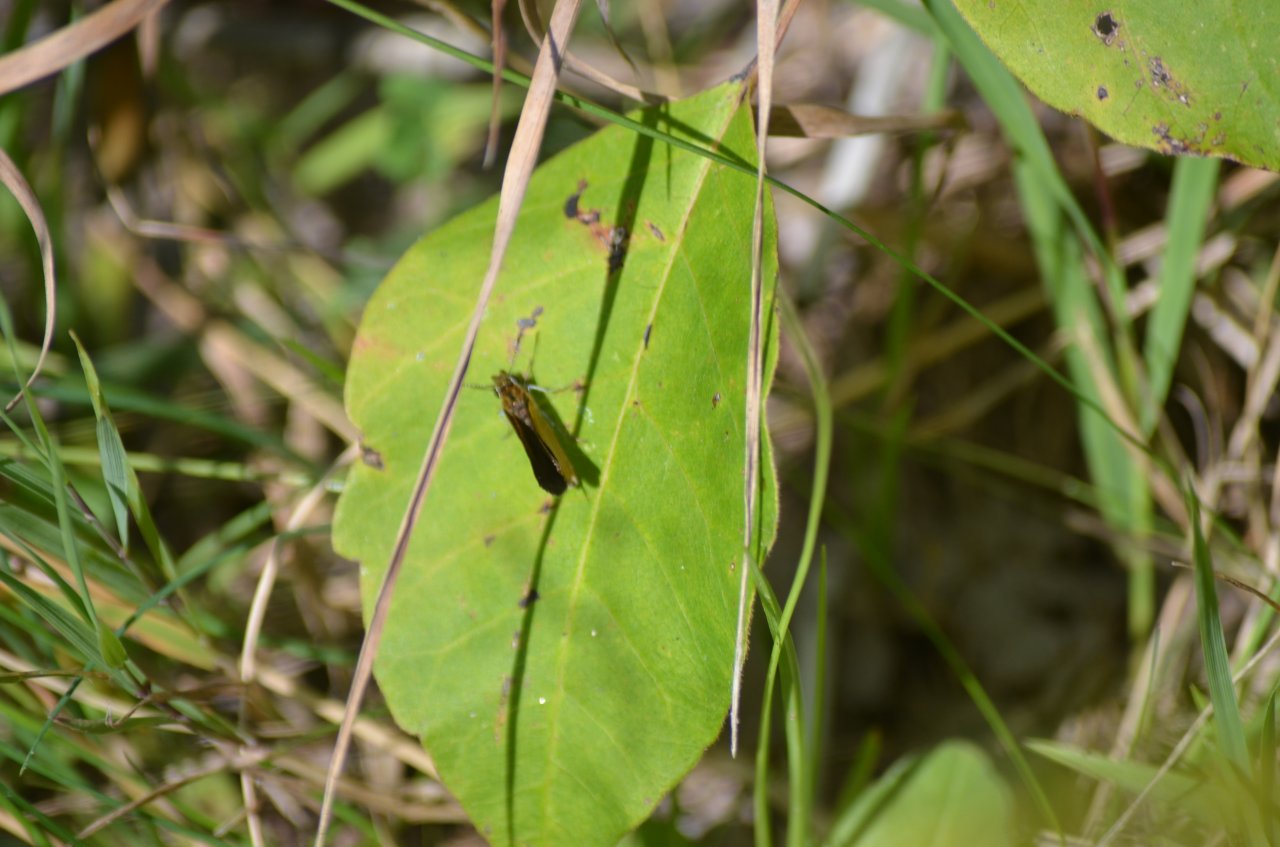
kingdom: Animalia
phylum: Arthropoda
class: Insecta
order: Lepidoptera
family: Hesperiidae
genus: Ancyloxypha
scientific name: Ancyloxypha numitor
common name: Least Skipper
